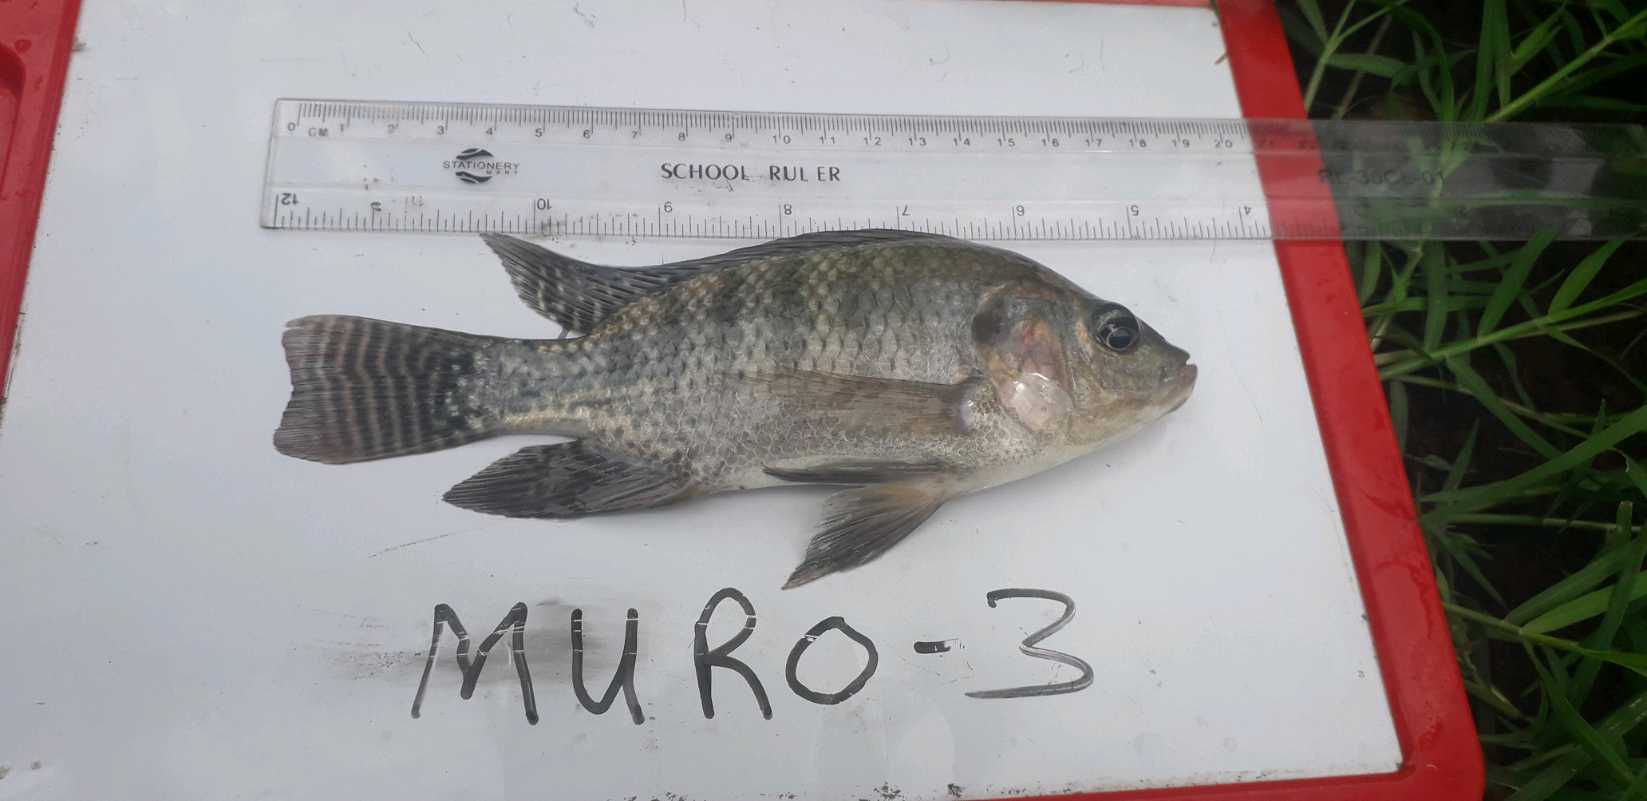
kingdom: Animalia
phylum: Chordata
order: Perciformes
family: Cichlidae
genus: Oreochromis
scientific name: Oreochromis niloticus
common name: Nile tilapia
